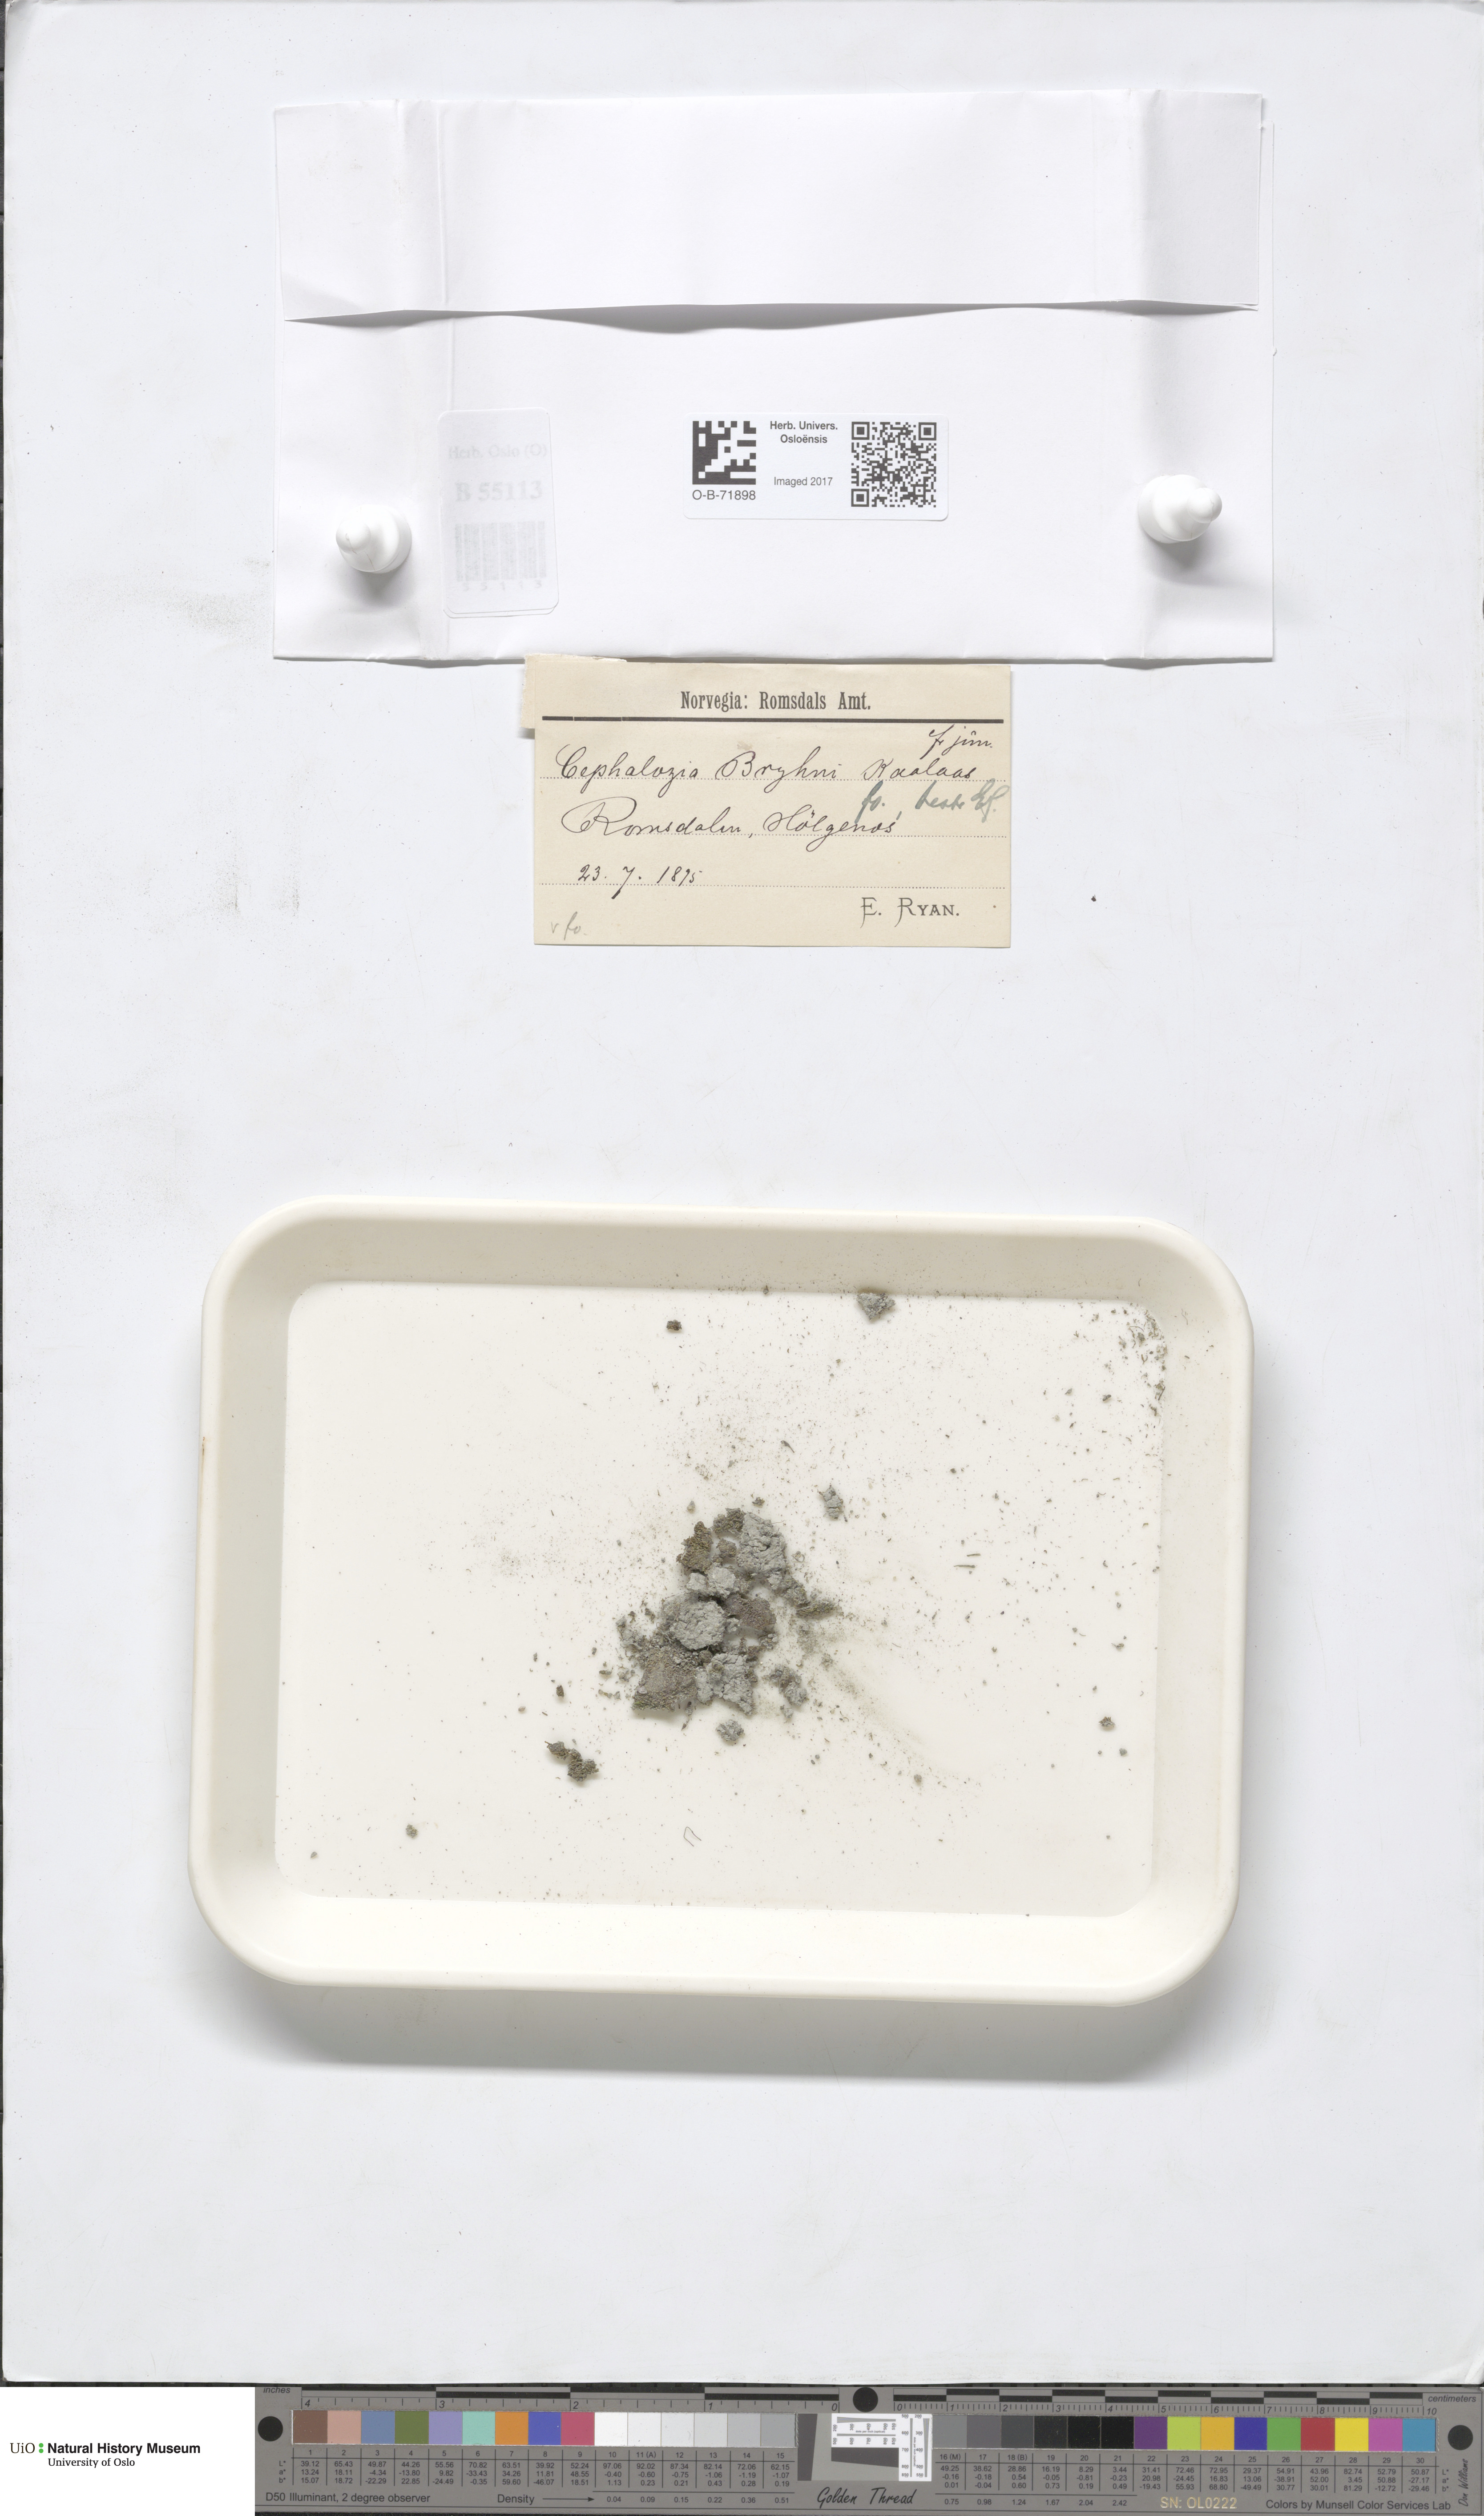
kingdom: Plantae
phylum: Marchantiophyta
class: Jungermanniopsida
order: Jungermanniales
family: Cephaloziellaceae
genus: Cephaloziella
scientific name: Cephaloziella rubella
